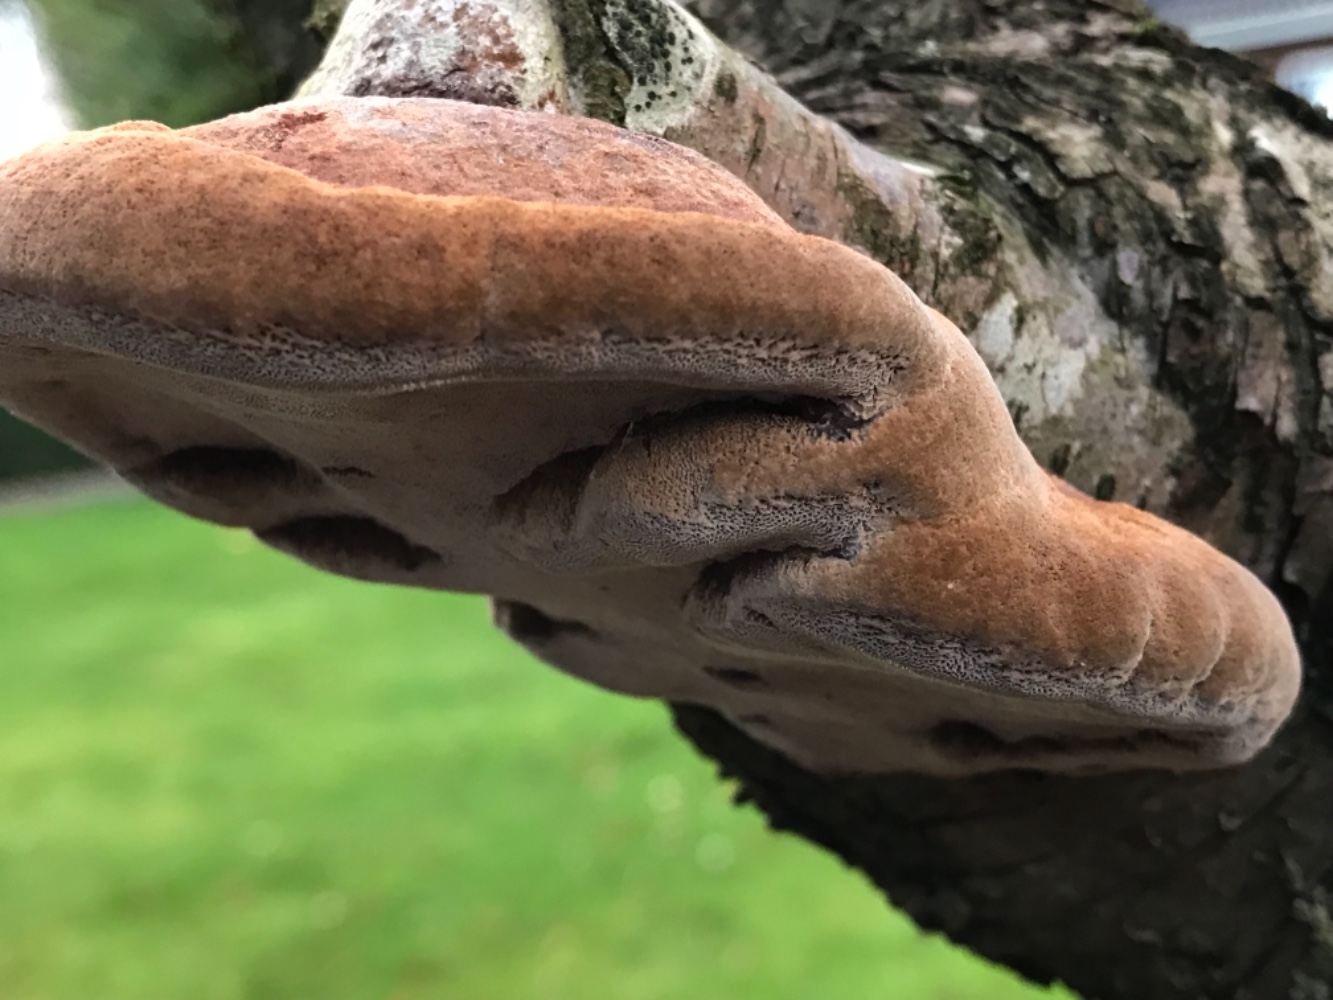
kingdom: Fungi
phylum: Basidiomycota
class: Agaricomycetes
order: Hymenochaetales
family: Hymenochaetaceae
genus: Phellinus
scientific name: Phellinus pomaceus
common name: blomme-ildporesvamp
